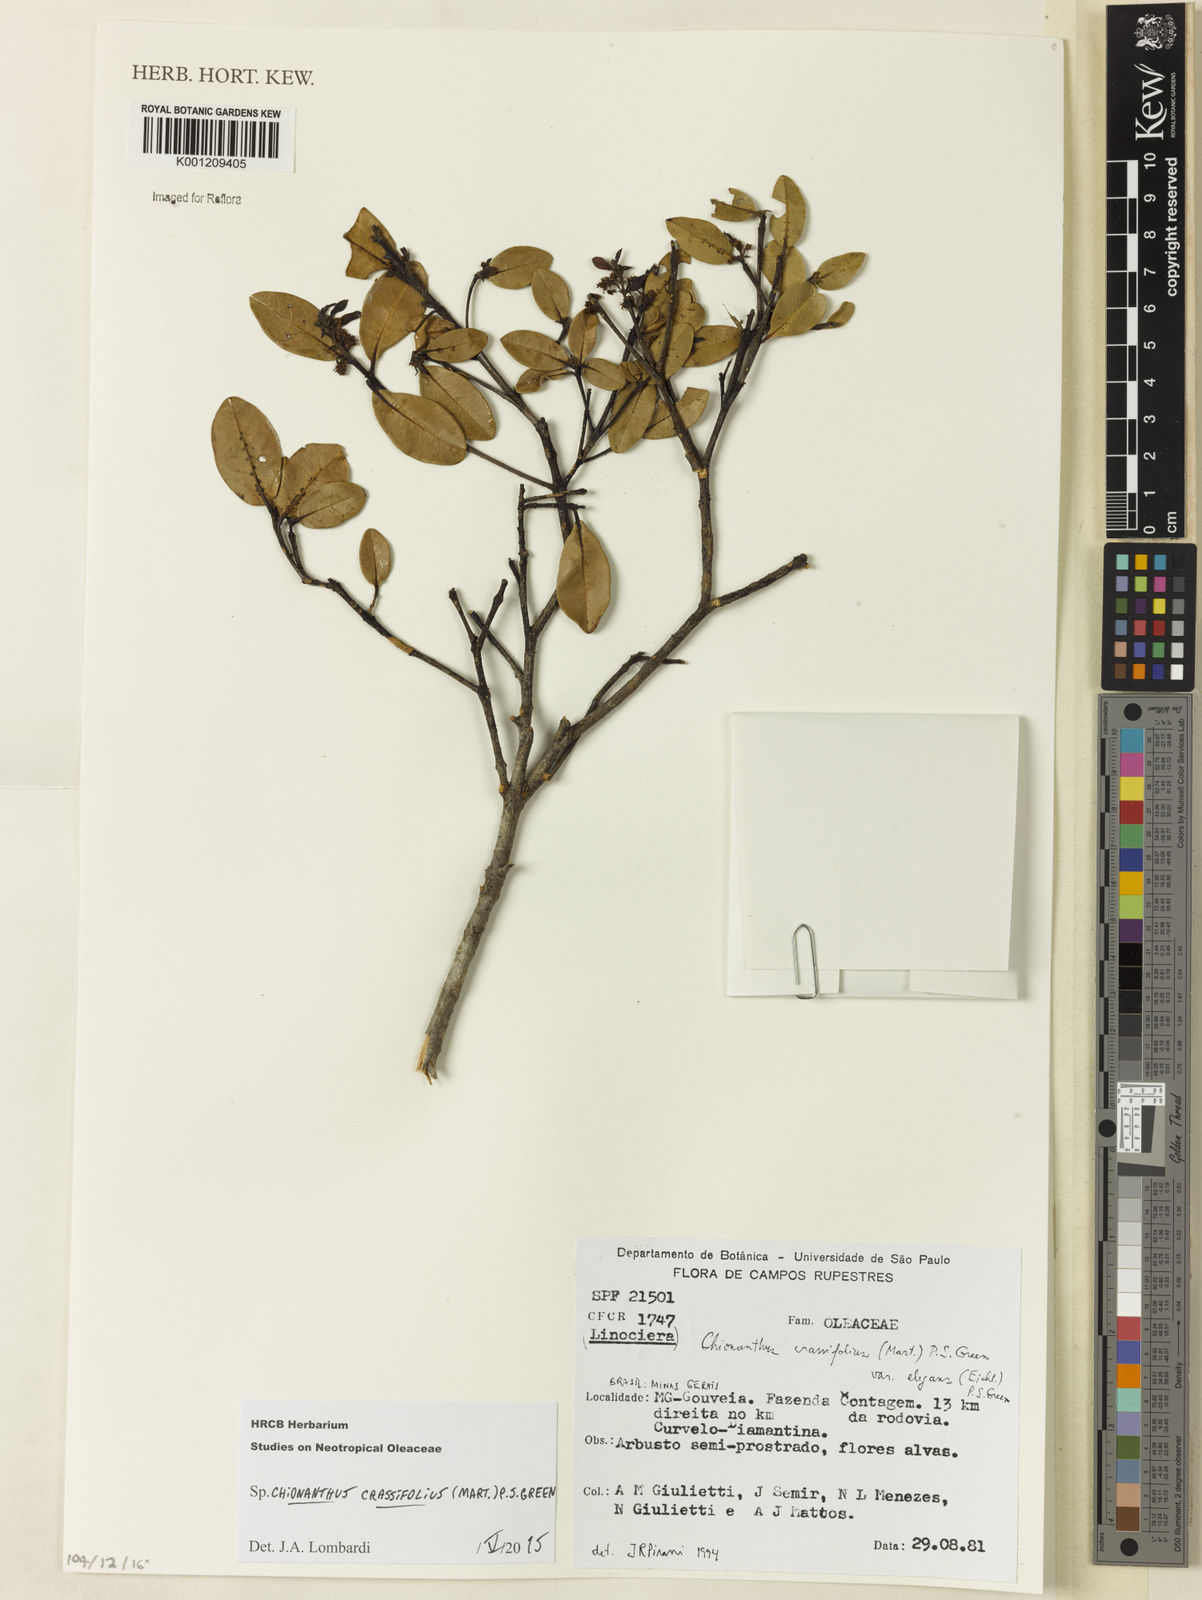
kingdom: Plantae
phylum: Tracheophyta
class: Magnoliopsida
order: Lamiales
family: Oleaceae
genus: Chionanthus
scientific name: Chionanthus crassifolius
